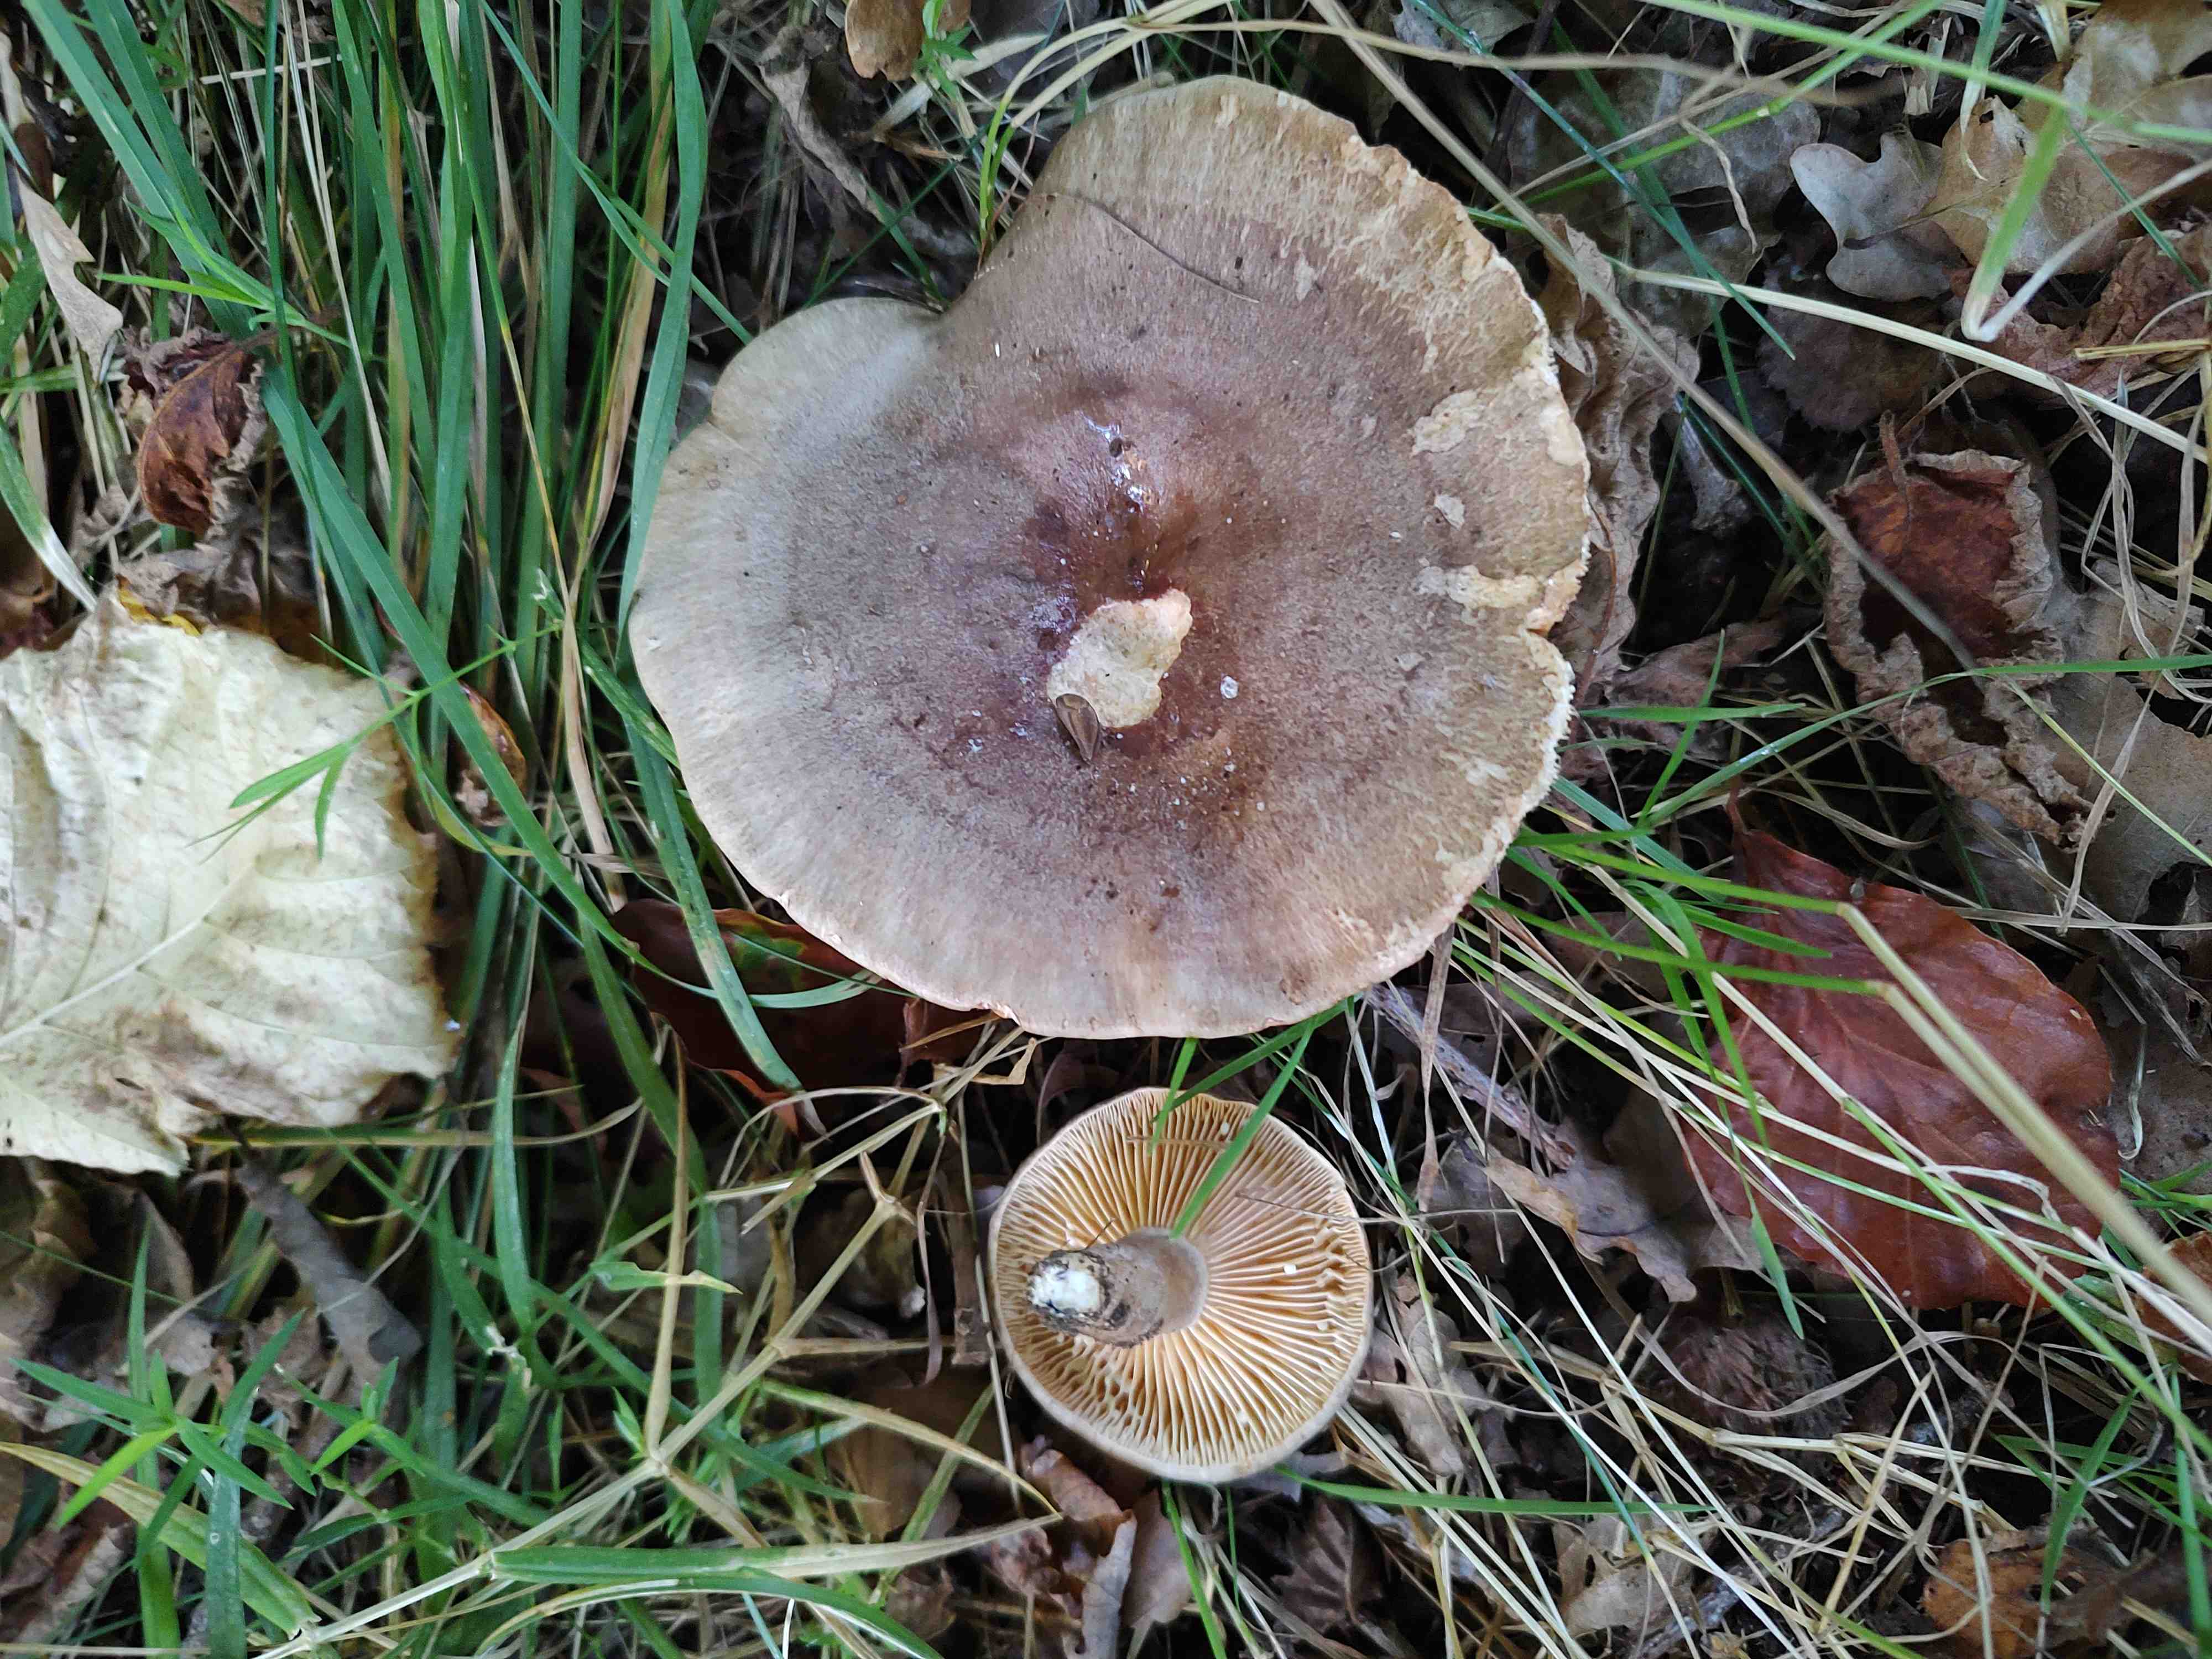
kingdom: Fungi
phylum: Basidiomycota
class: Agaricomycetes
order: Russulales
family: Russulaceae
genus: Lactarius
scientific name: Lactarius pyrogalus
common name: hassel-mælkehat
